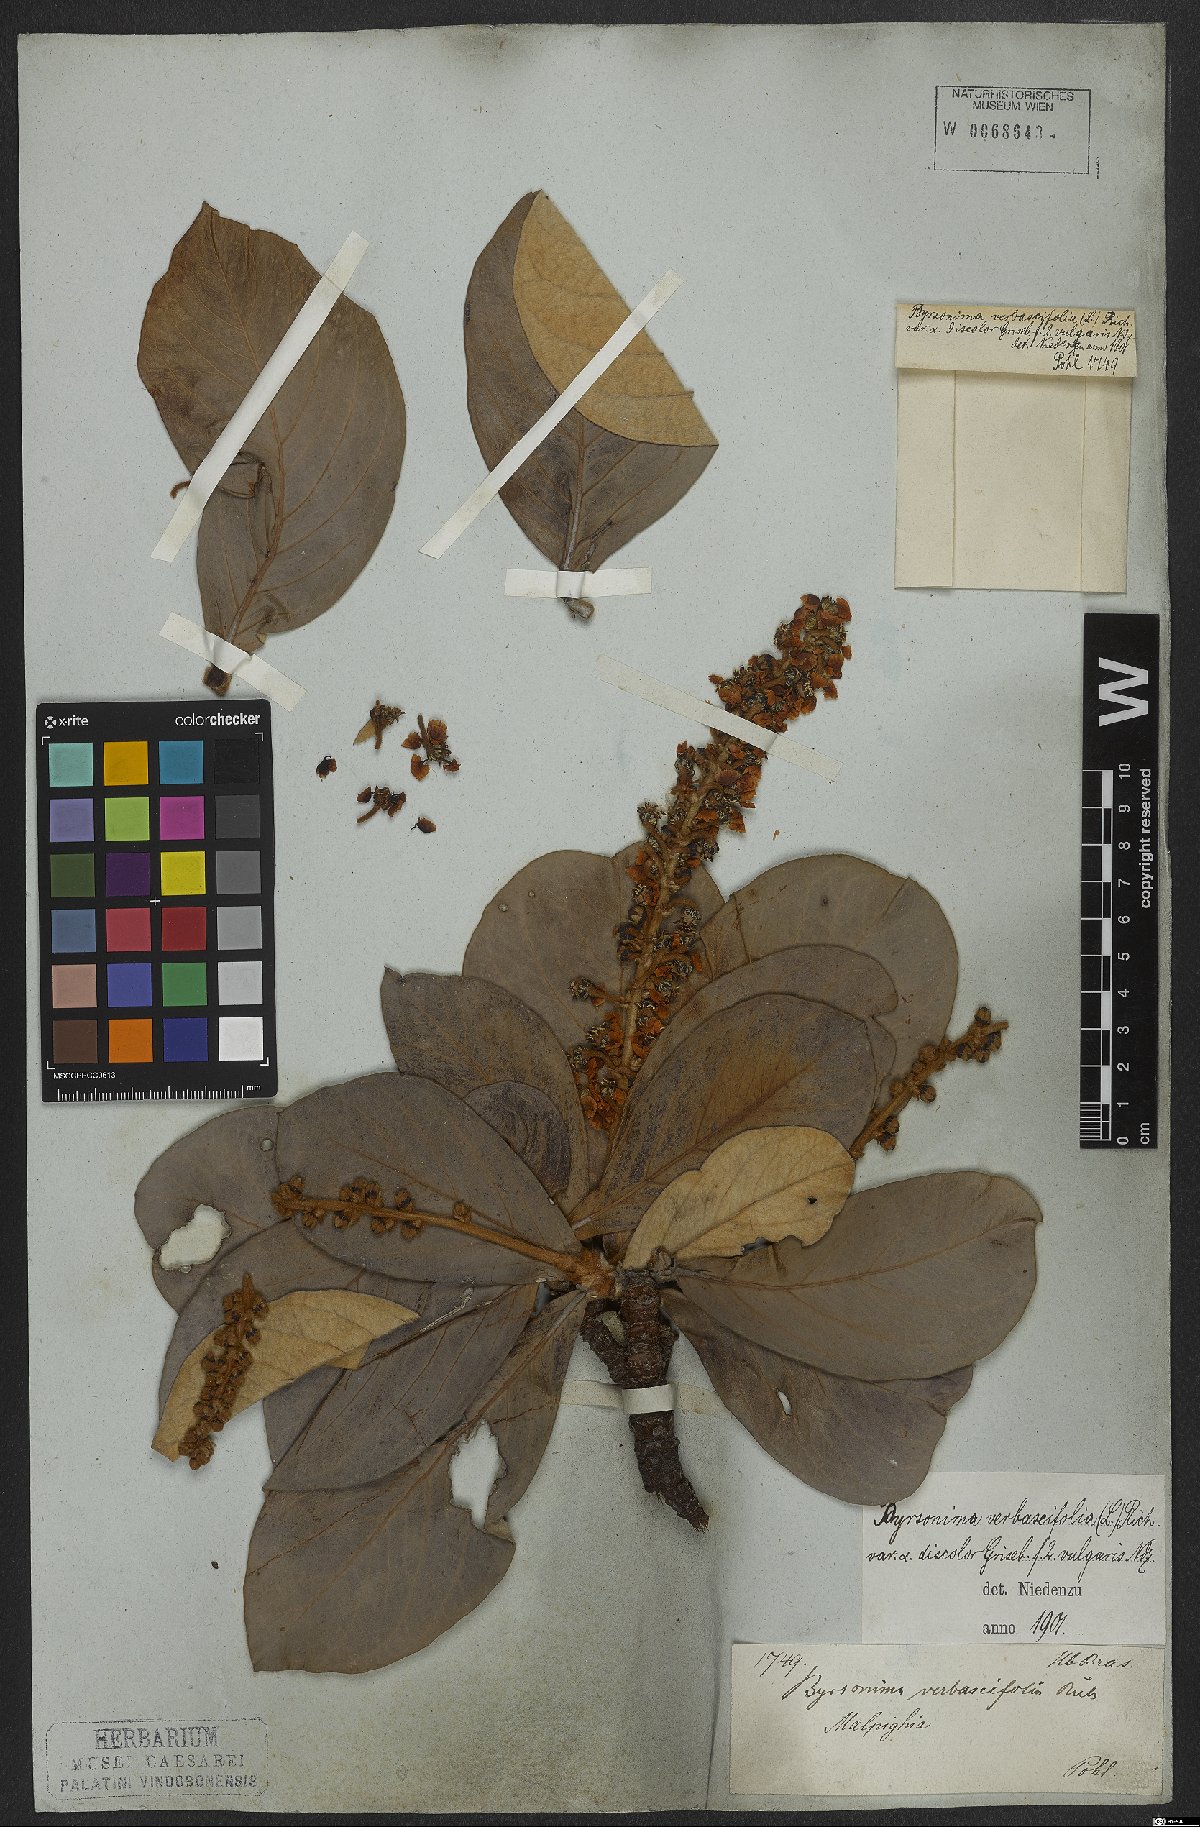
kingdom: Plantae
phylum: Tracheophyta
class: Magnoliopsida
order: Malpighiales
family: Malpighiaceae
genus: Byrsonima
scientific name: Byrsonima verbascifolia
